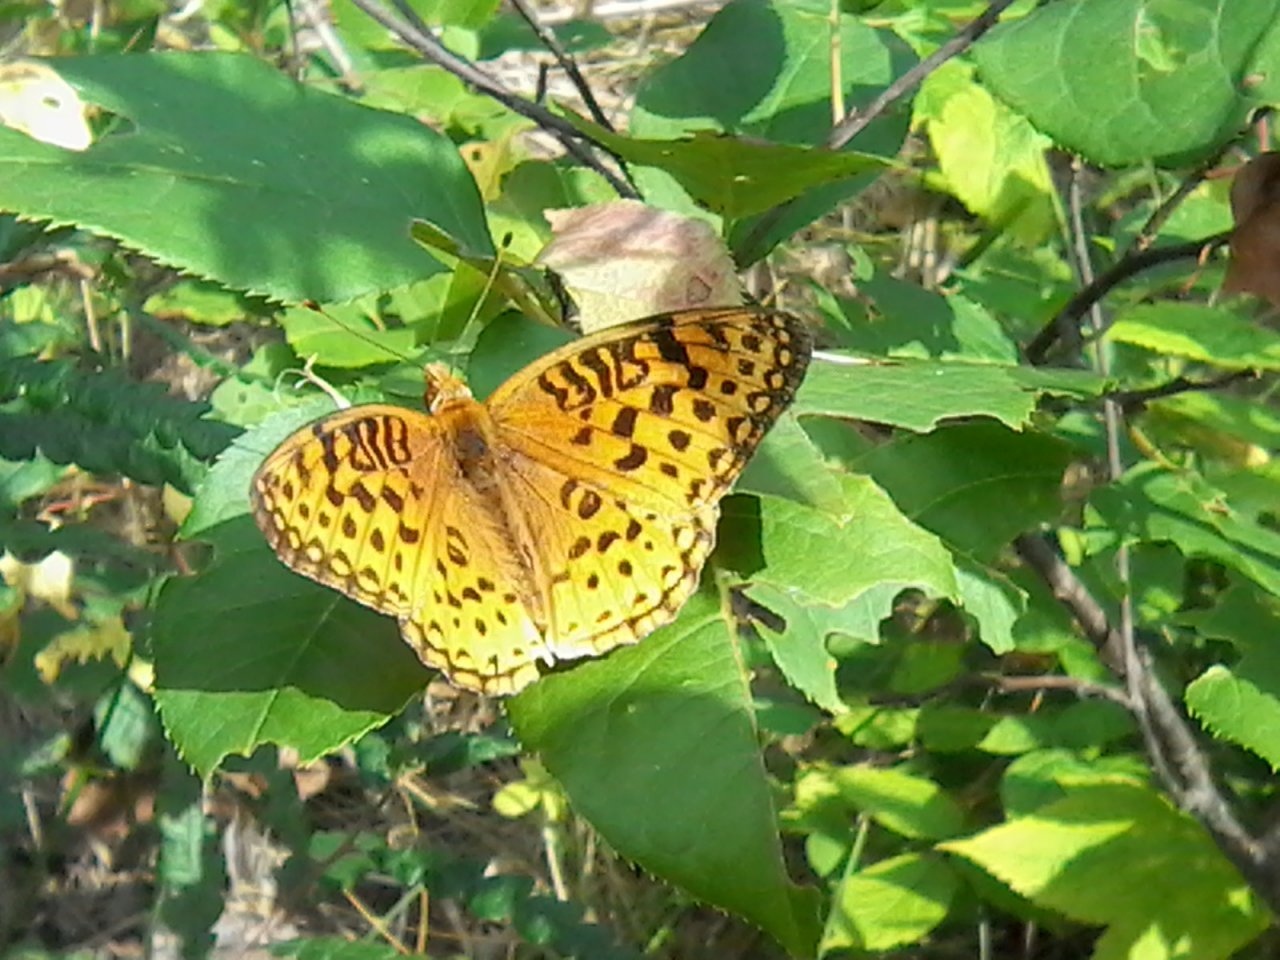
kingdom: Animalia
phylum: Arthropoda
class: Insecta
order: Lepidoptera
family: Nymphalidae
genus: Speyeria
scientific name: Speyeria aphrodite
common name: Aphrodite Fritillary
